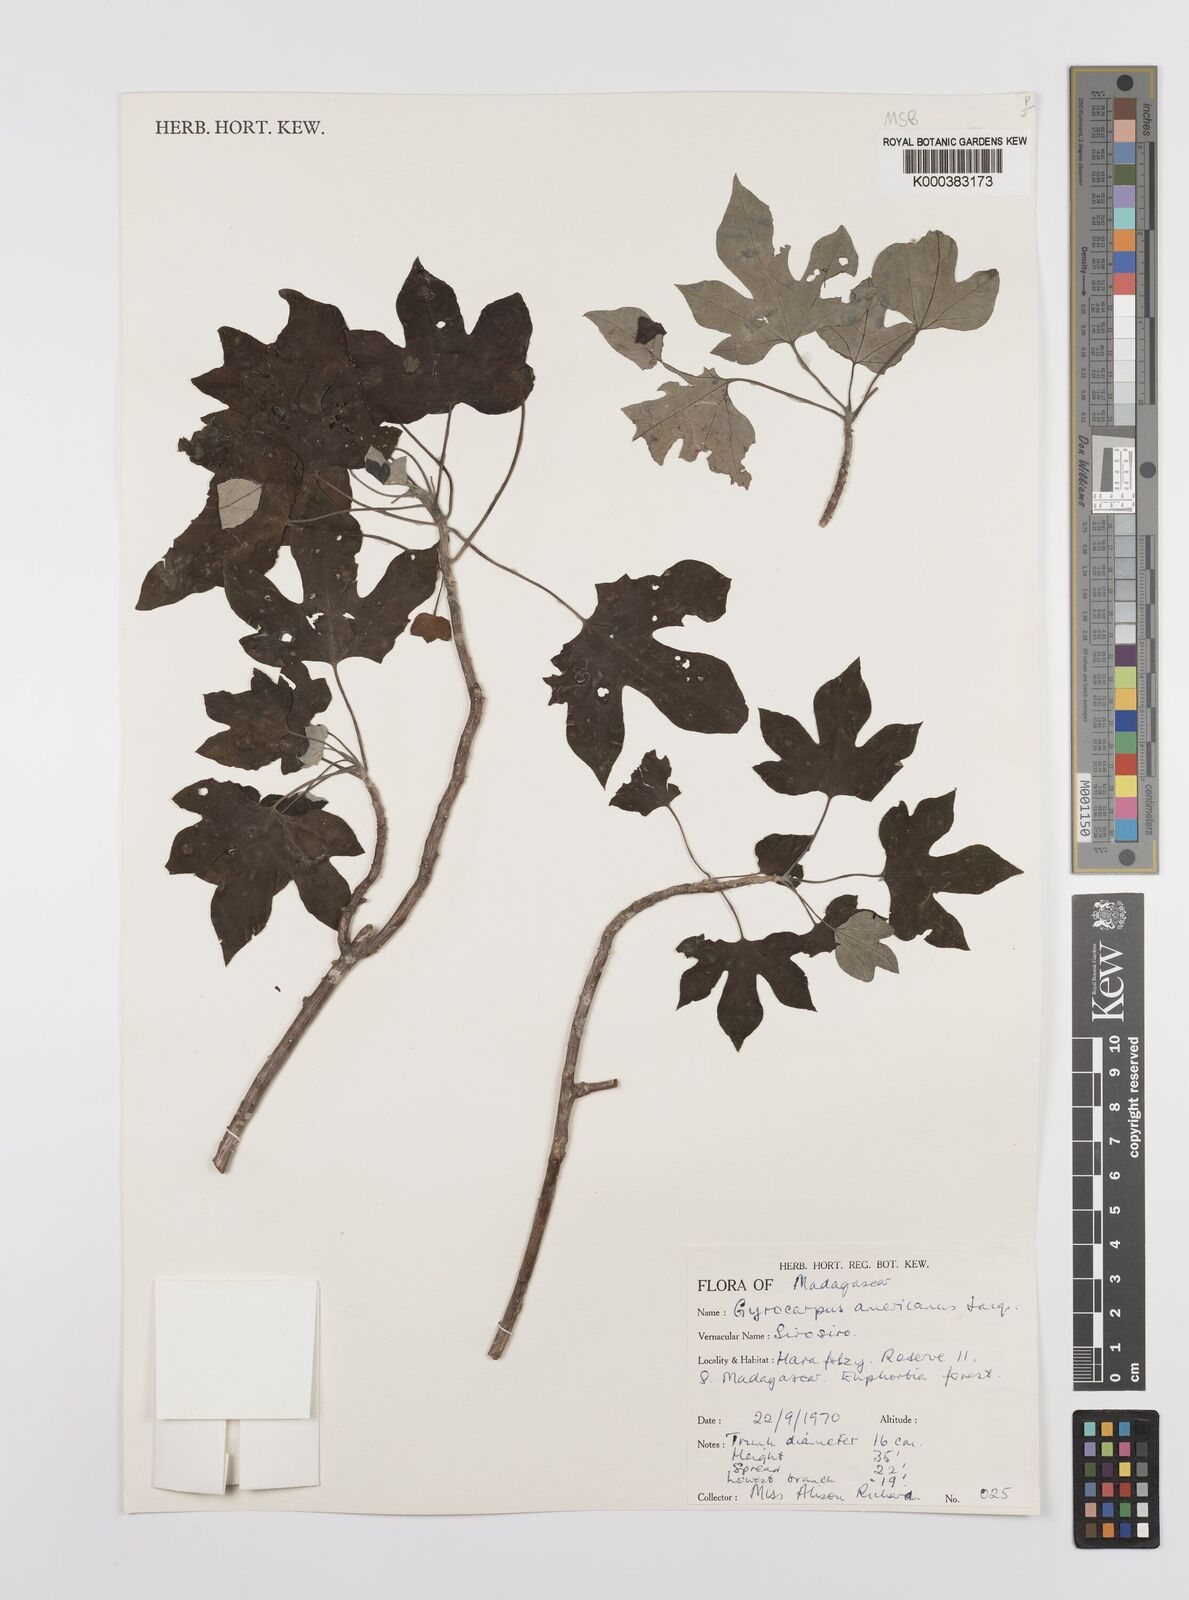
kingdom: Plantae
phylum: Tracheophyta
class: Magnoliopsida
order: Laurales
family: Hernandiaceae
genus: Gyrocarpus
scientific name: Gyrocarpus americanus
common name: Gyro damson
